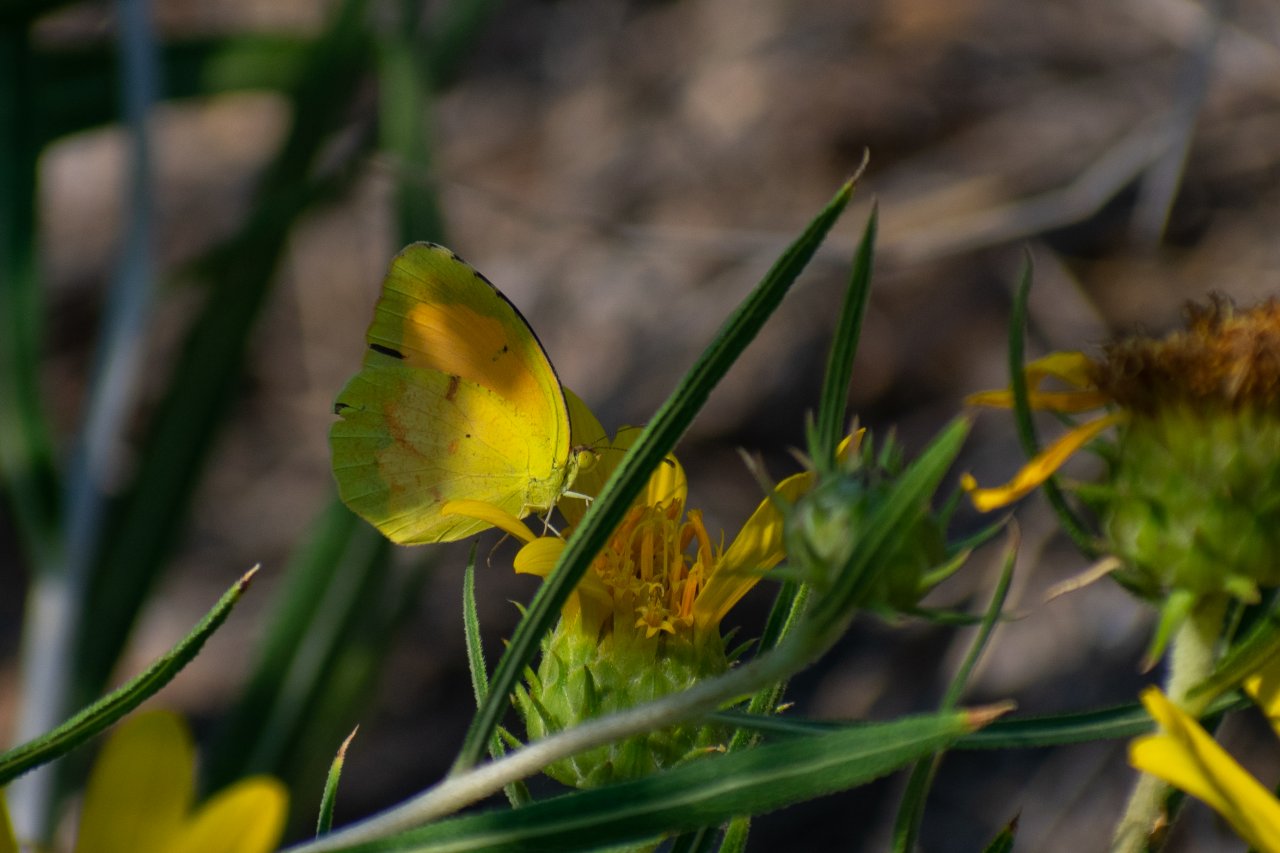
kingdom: Animalia
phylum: Arthropoda
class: Insecta
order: Lepidoptera
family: Pieridae
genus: Abaeis
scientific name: Abaeis nicippe
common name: Sleepy Orange
